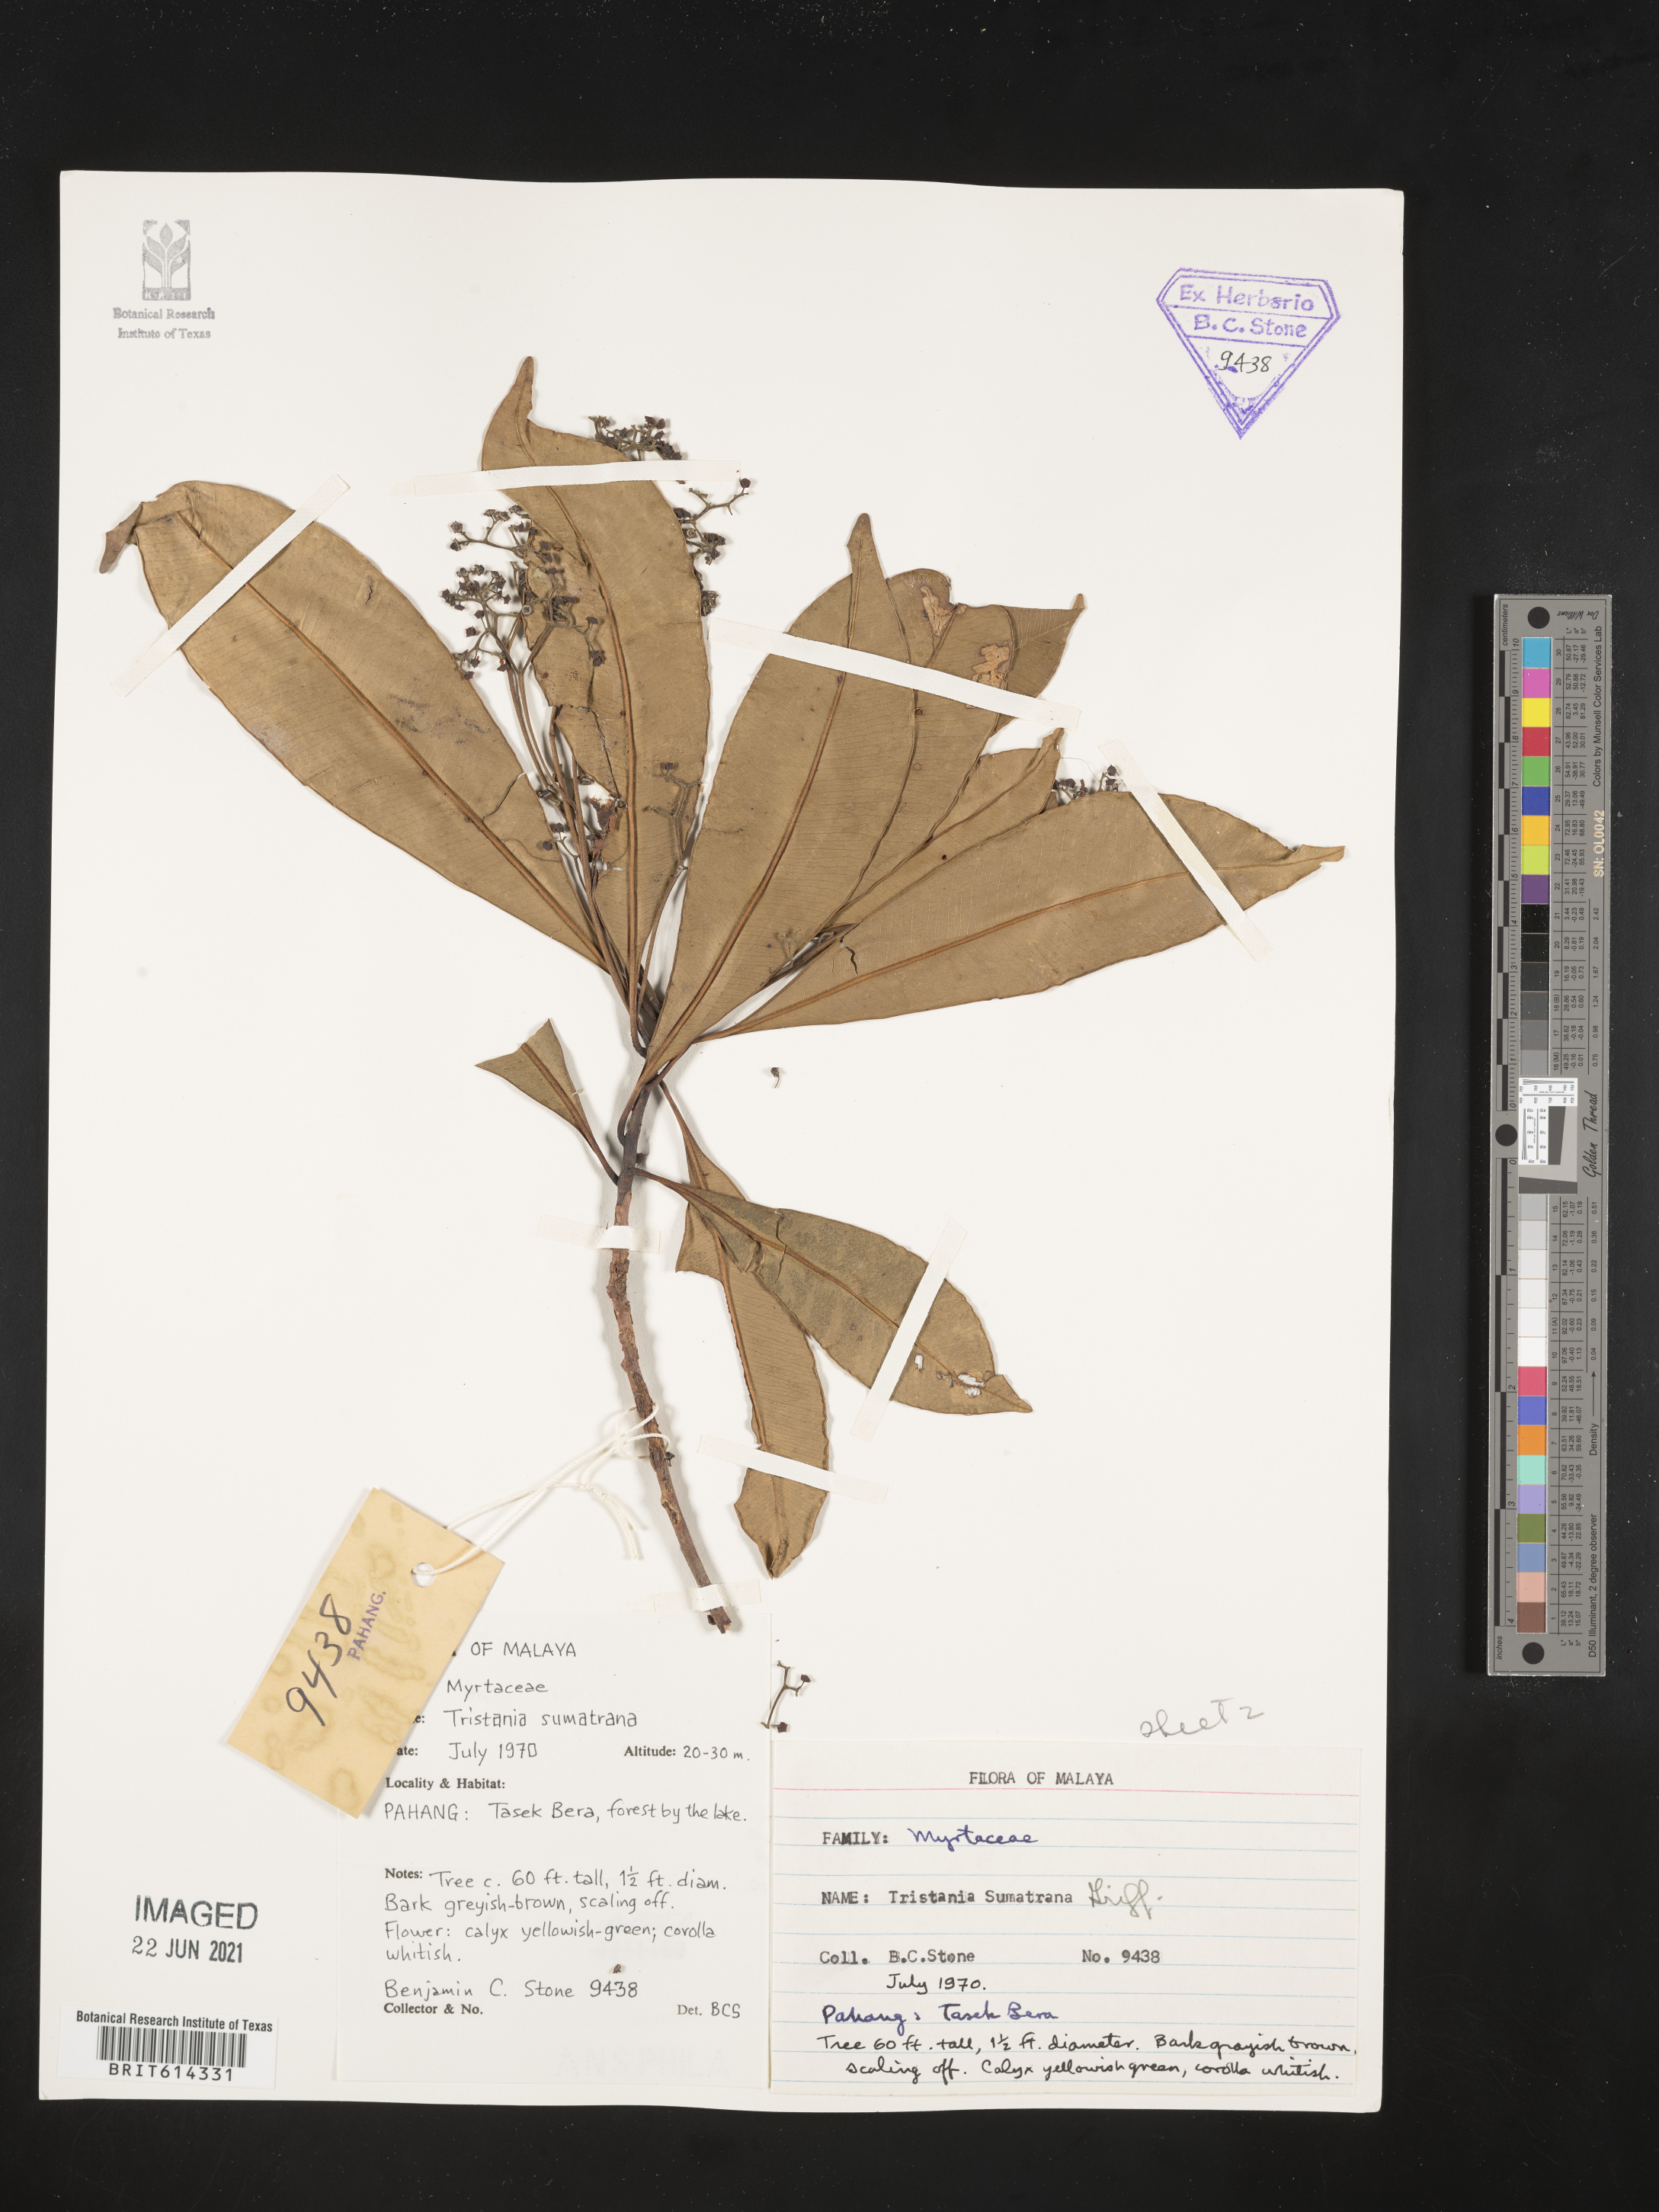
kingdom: Plantae
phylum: Tracheophyta
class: Magnoliopsida
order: Myrtales
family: Myrtaceae
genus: Tristaniopsis
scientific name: Tristaniopsis whiteana
